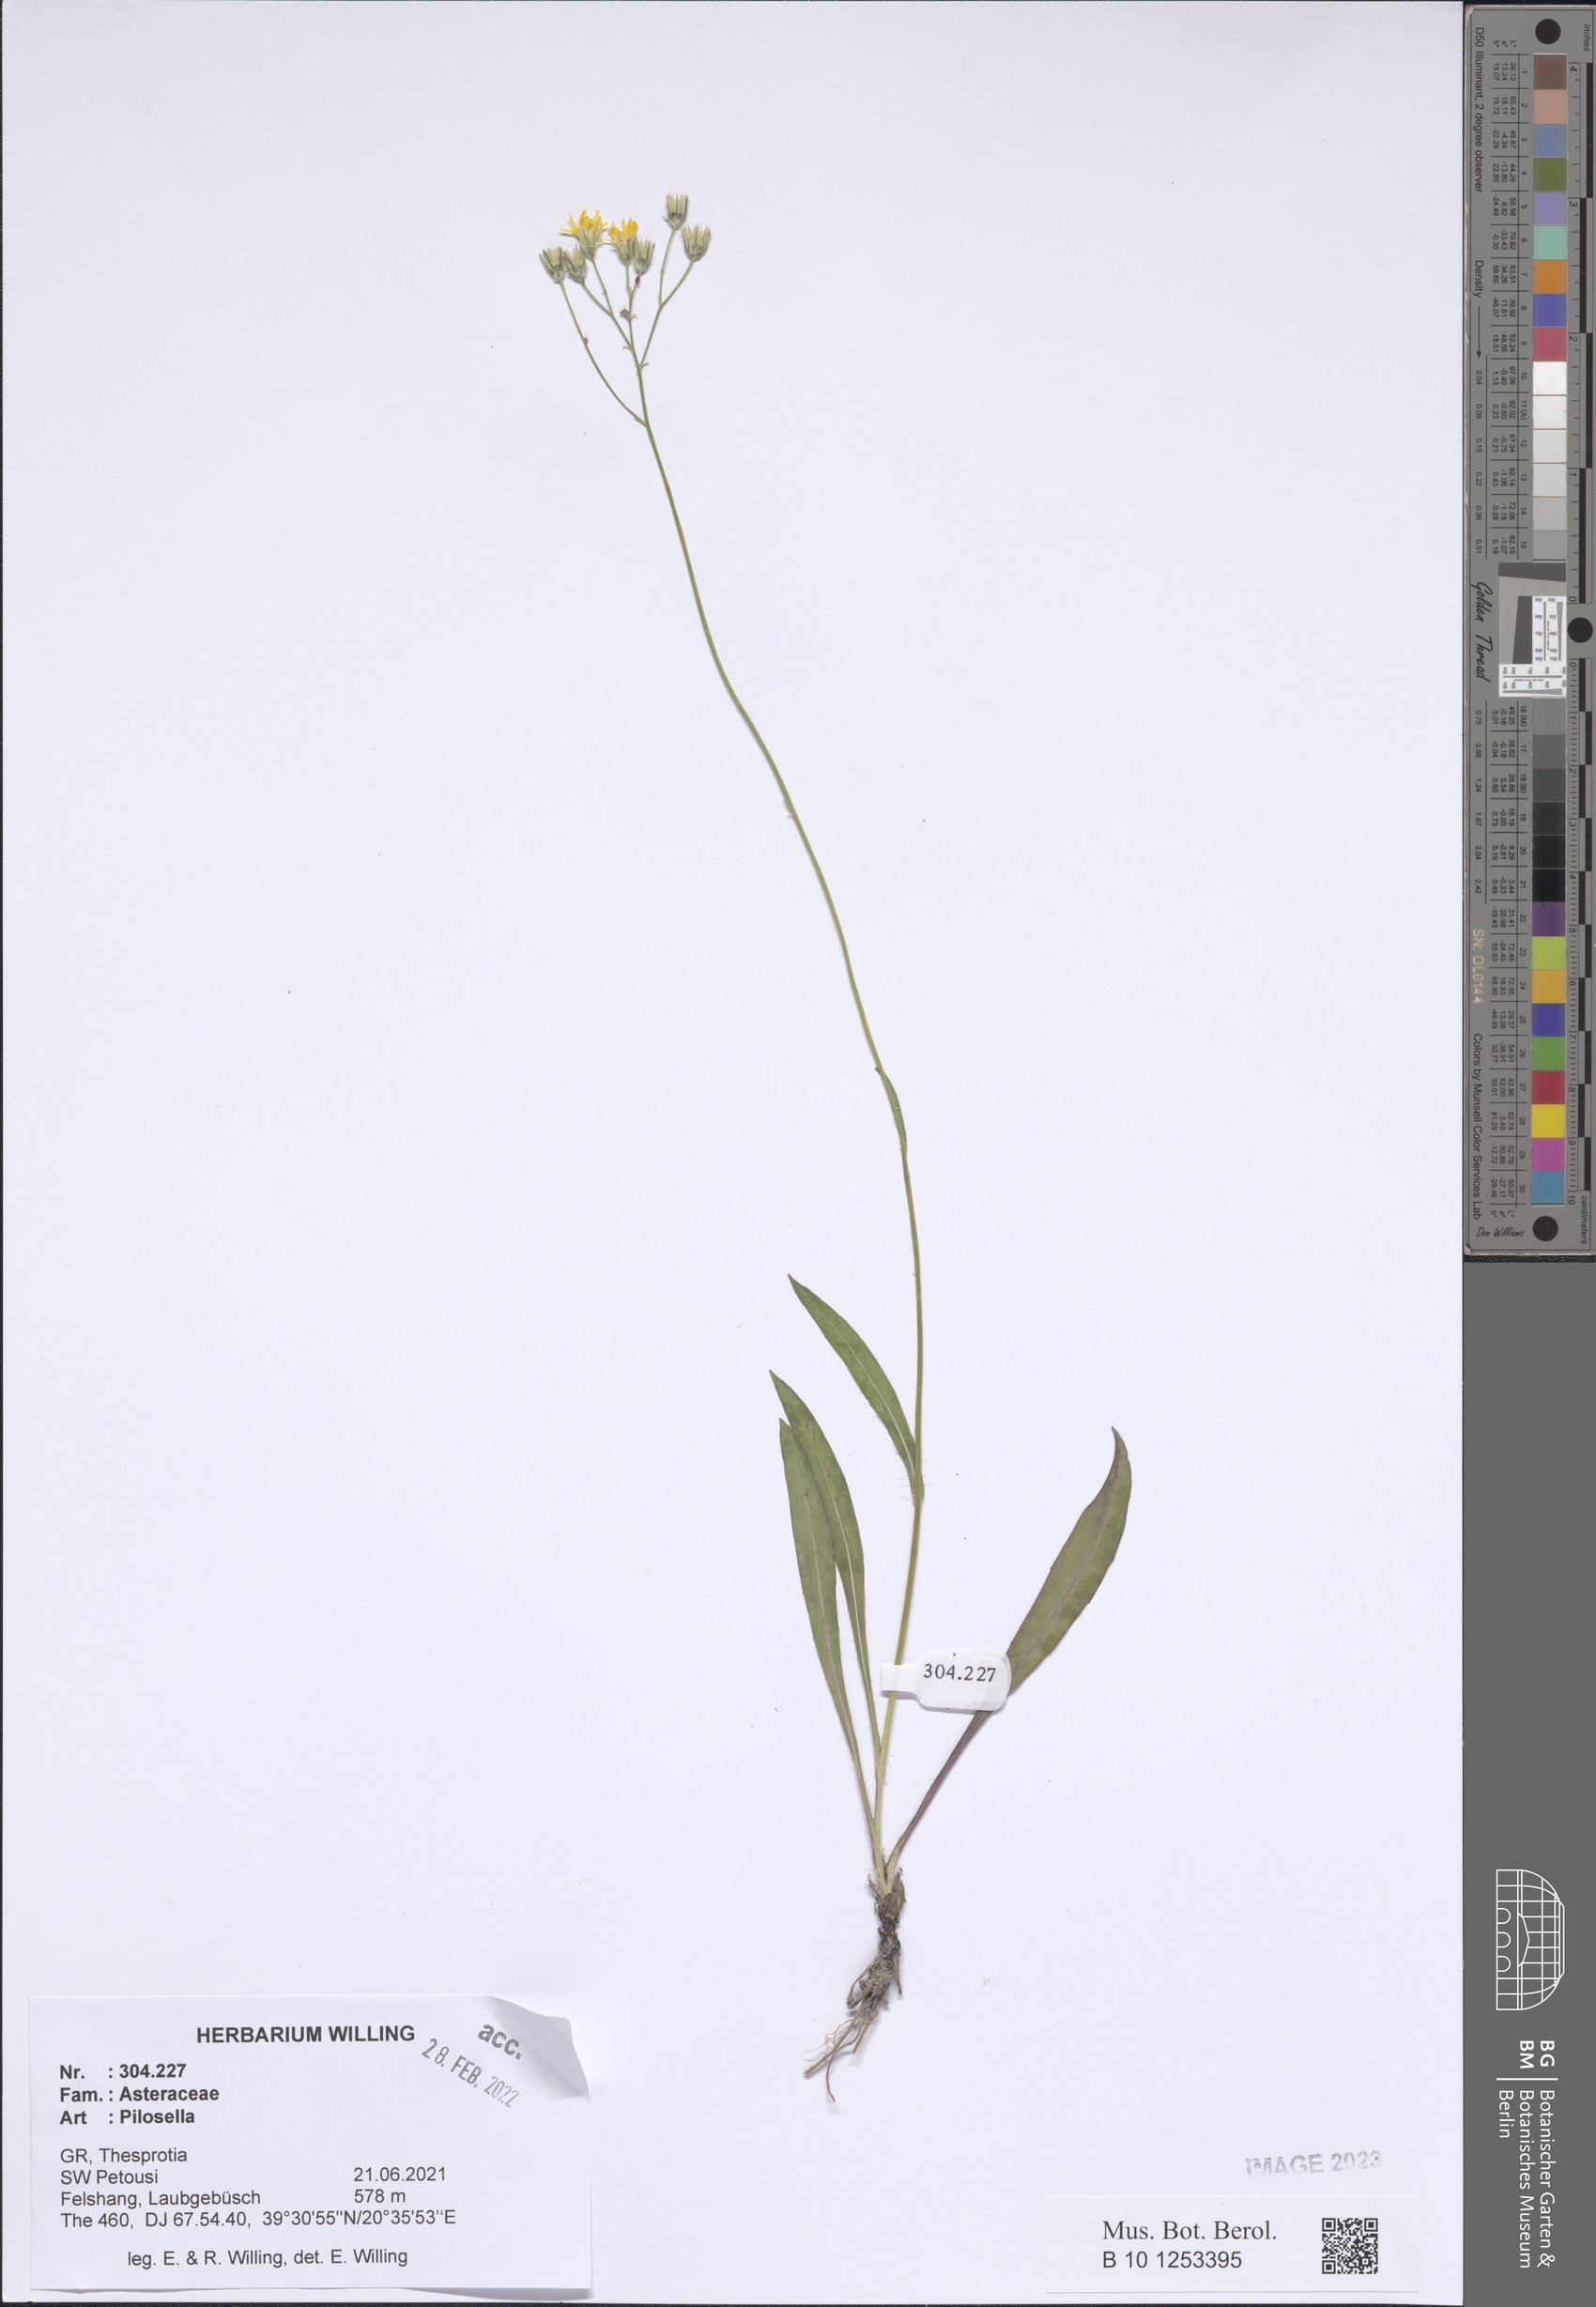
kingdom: Plantae
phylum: Tracheophyta
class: Magnoliopsida
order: Asterales
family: Asteraceae
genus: Pilosella
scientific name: Pilosella
